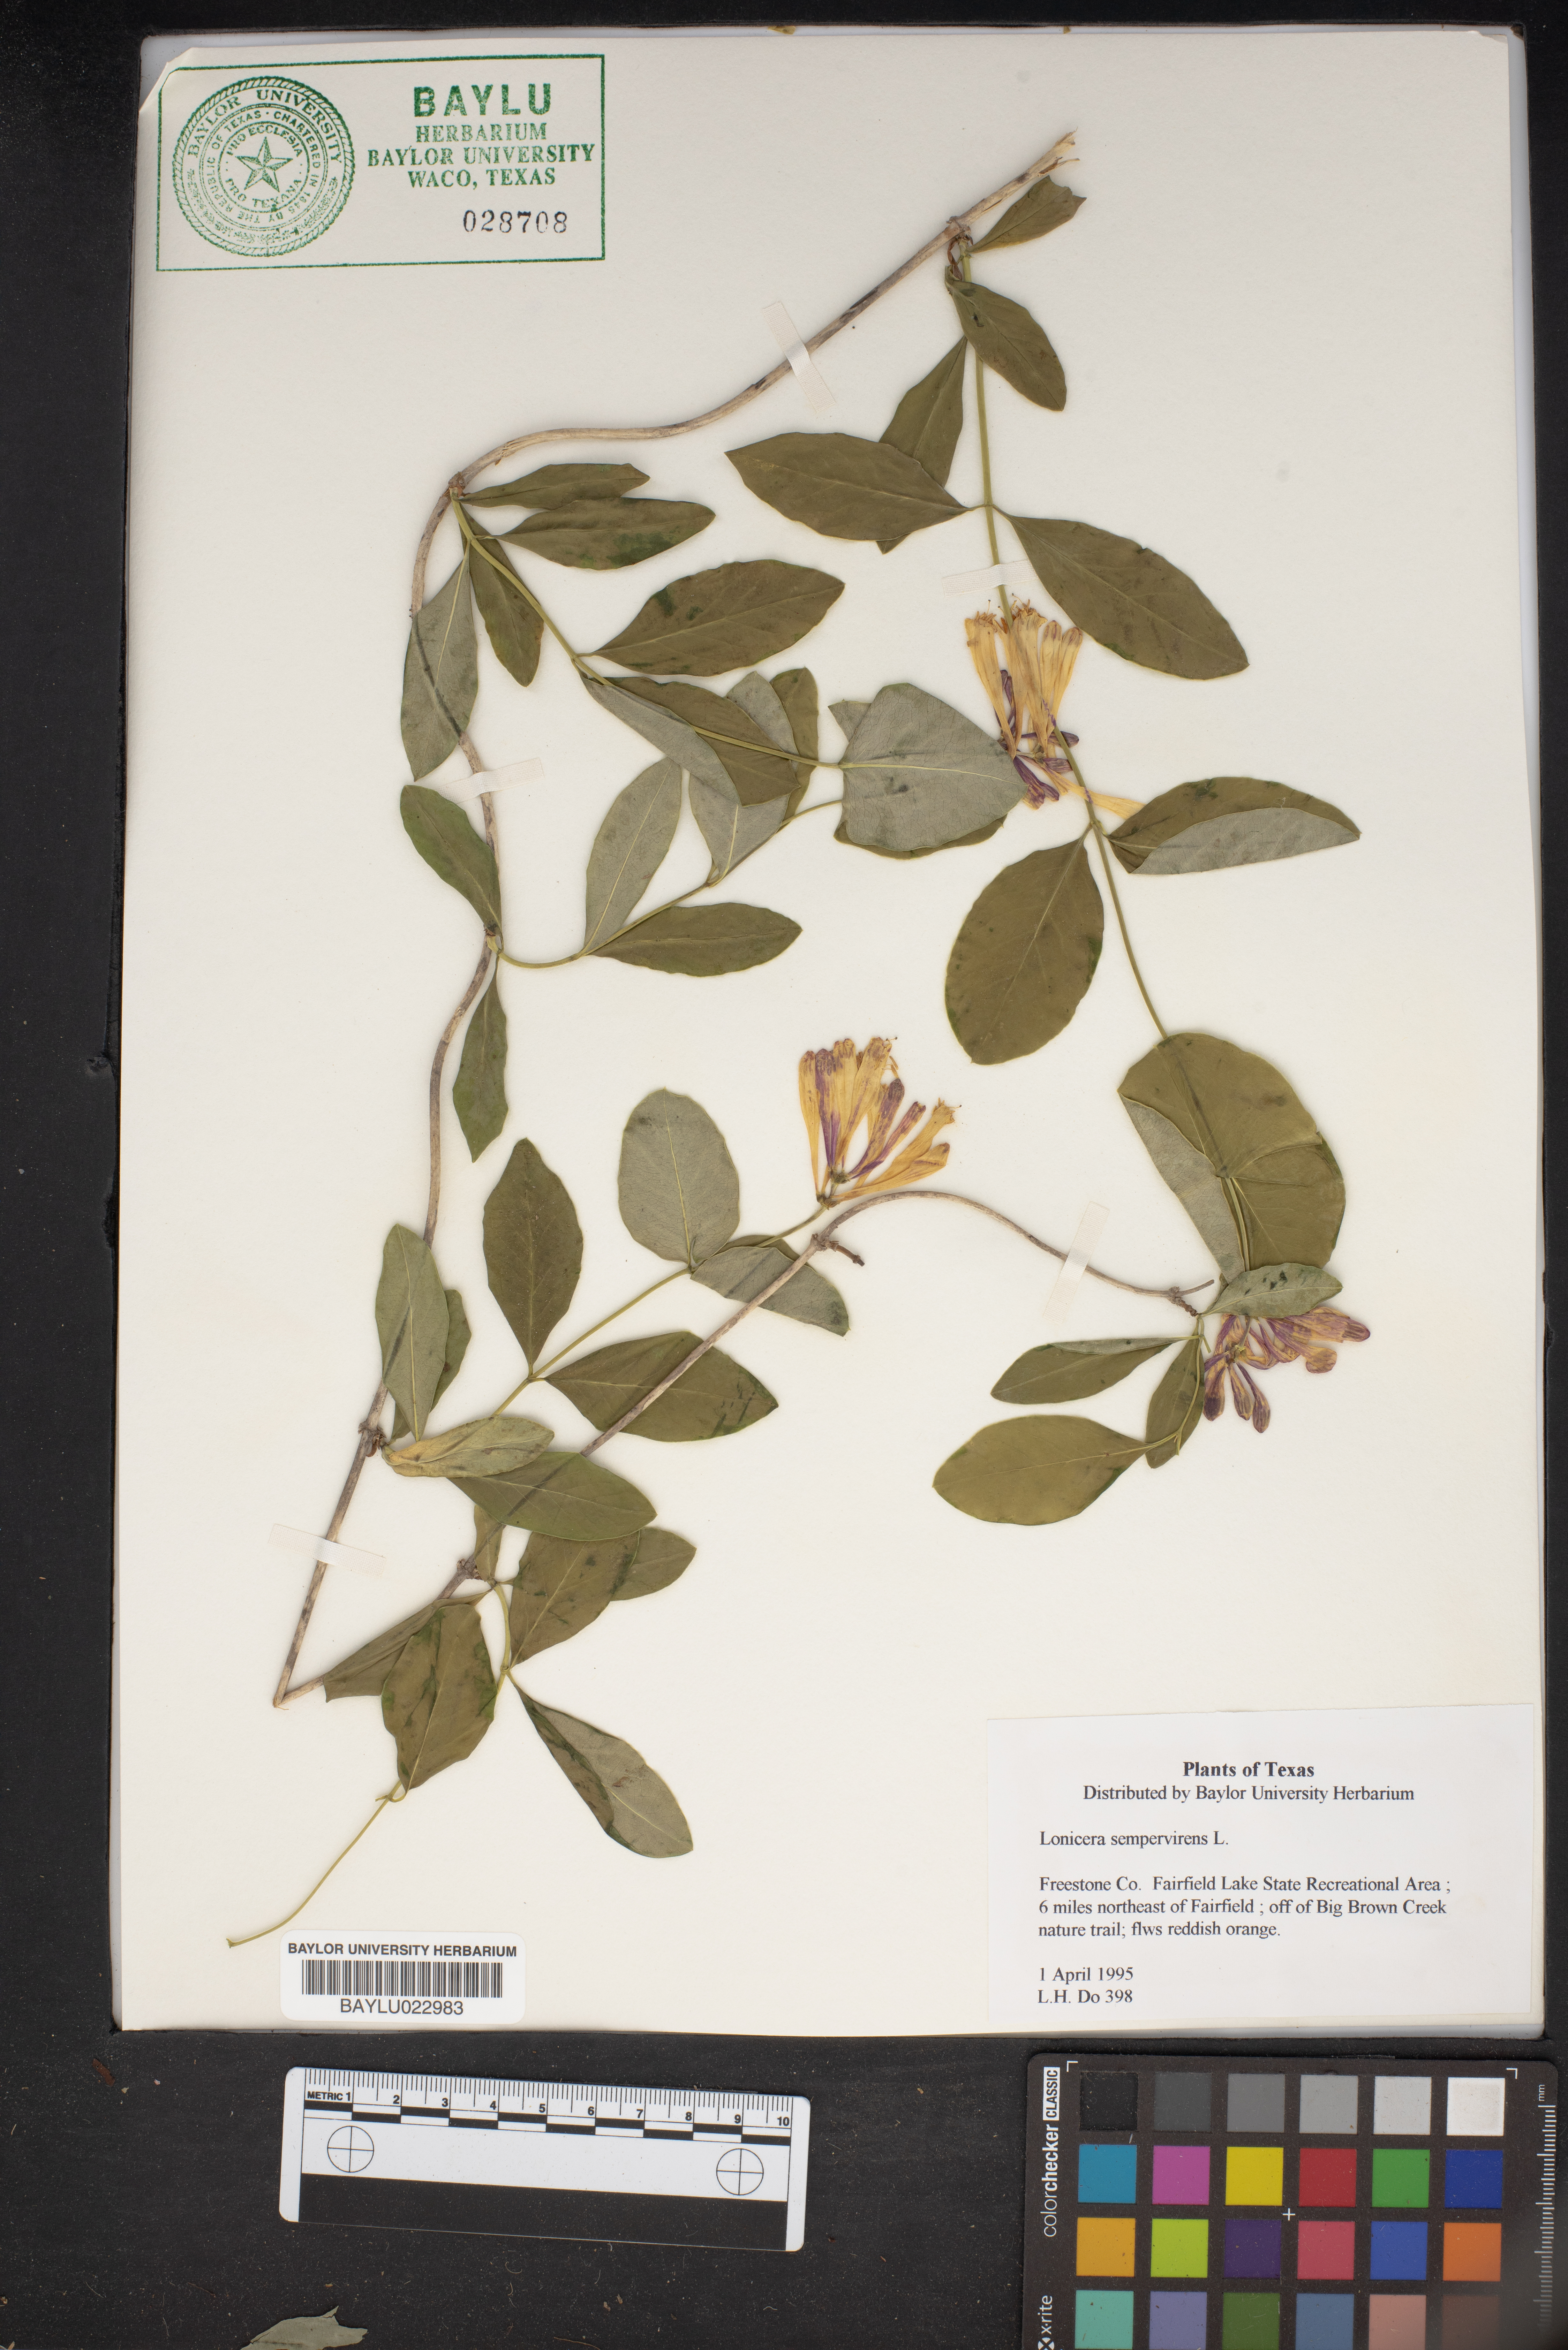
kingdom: Plantae
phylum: Tracheophyta
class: Magnoliopsida
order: Dipsacales
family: Caprifoliaceae
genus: Lonicera
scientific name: Lonicera sempervirens
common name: Coral honeysuckle
